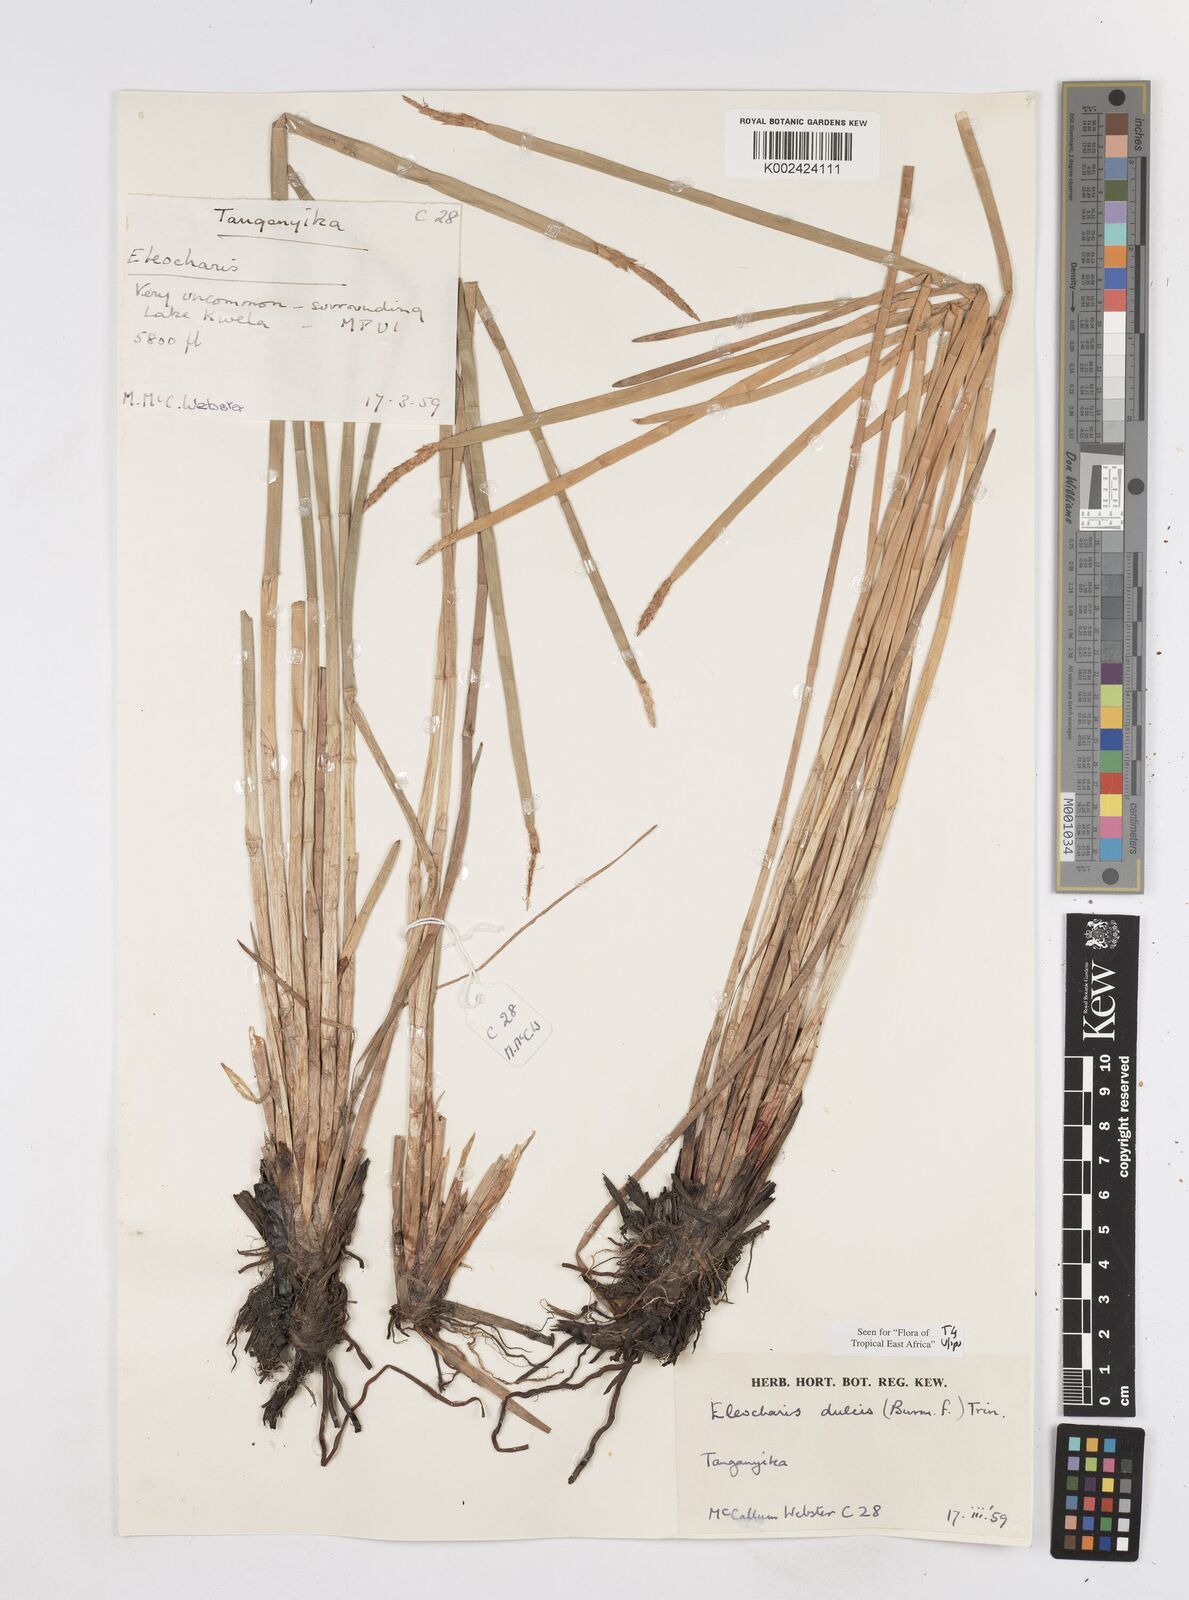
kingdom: Plantae
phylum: Tracheophyta
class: Liliopsida
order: Poales
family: Cyperaceae
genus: Eleocharis
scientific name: Eleocharis dulcis
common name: Chinese water chestnut
